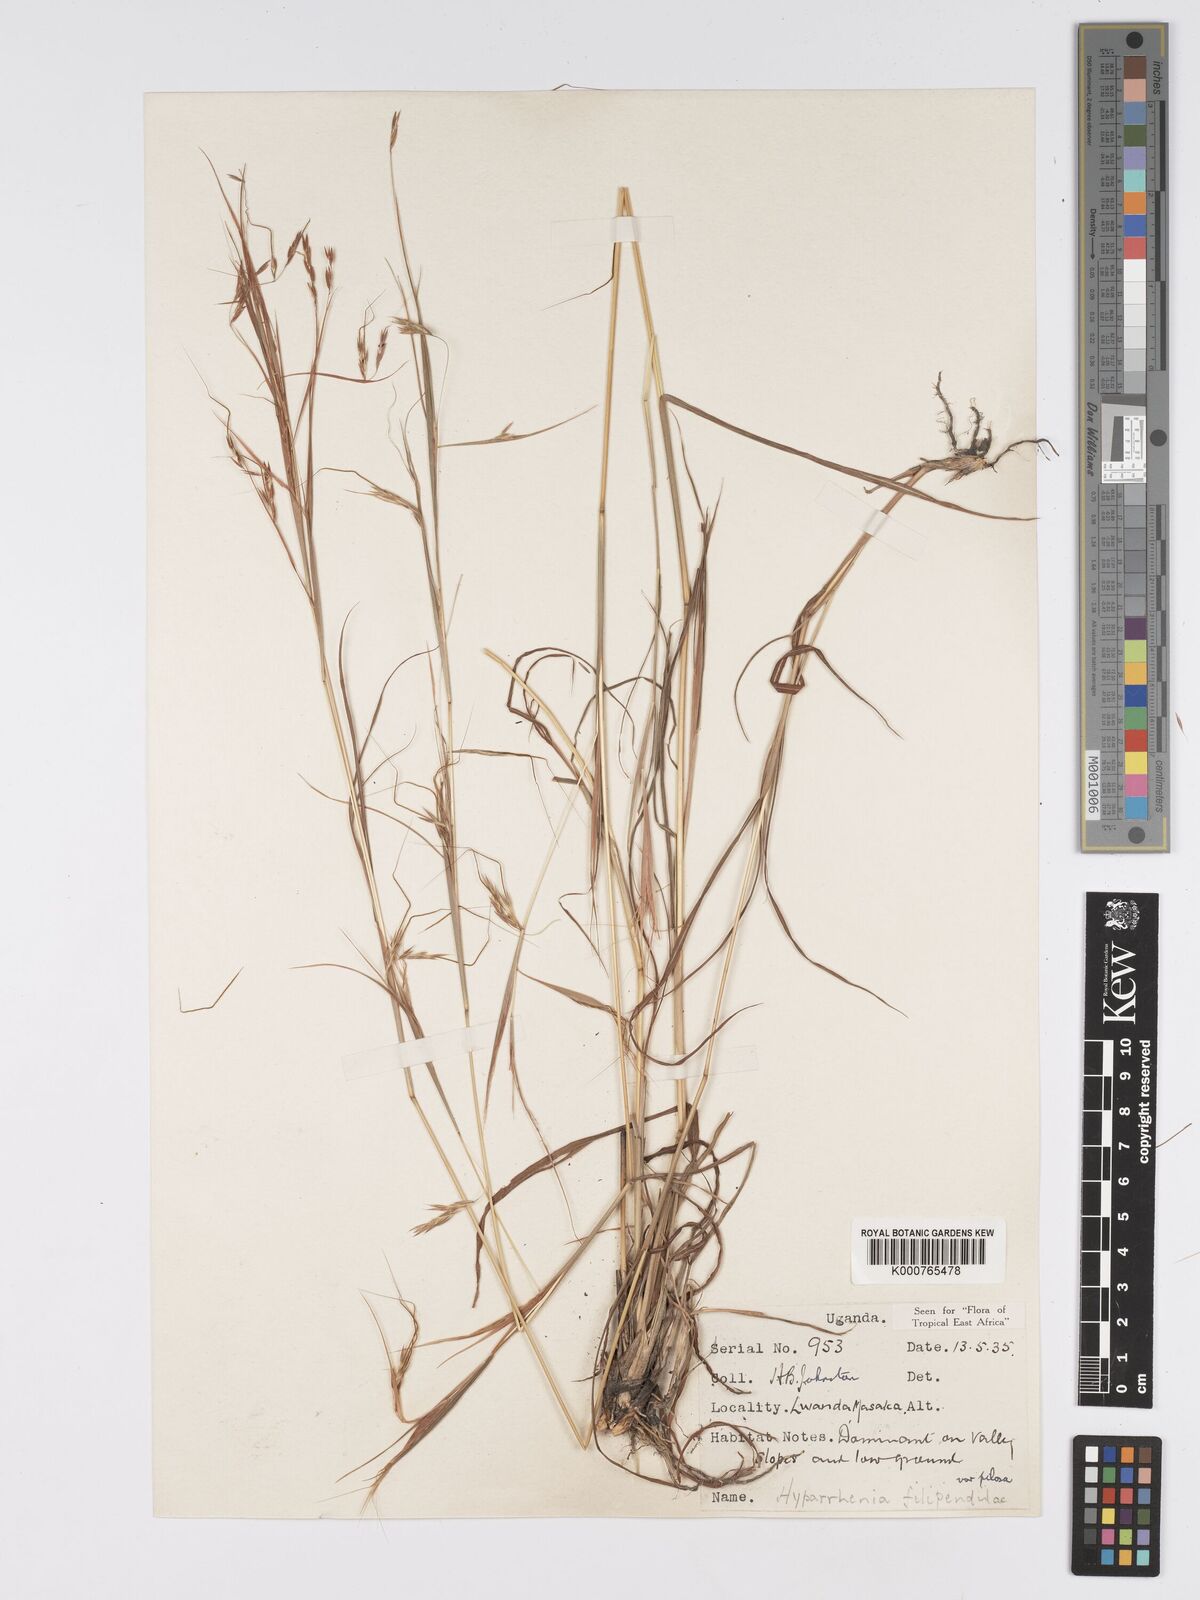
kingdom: Plantae
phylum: Tracheophyta
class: Liliopsida
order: Poales
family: Poaceae
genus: Hyparrhenia
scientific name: Hyparrhenia filipendula
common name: Tambookie grass
